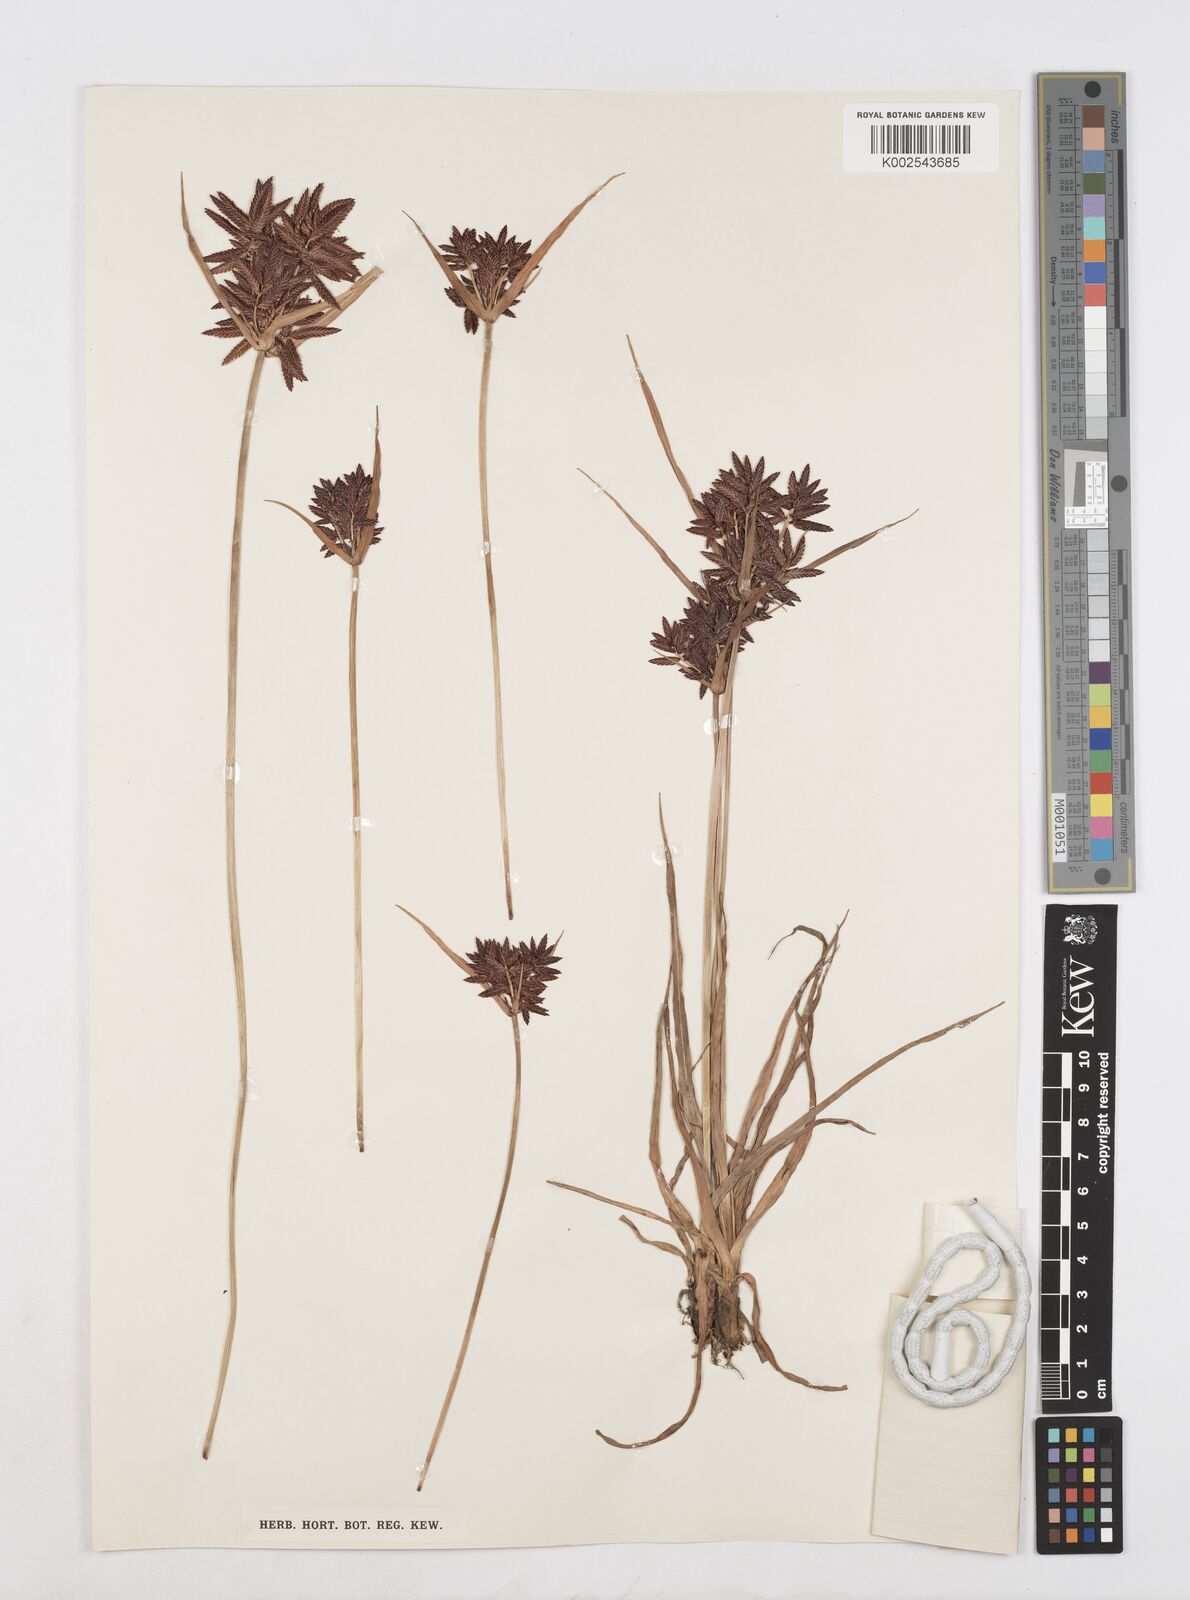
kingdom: Plantae
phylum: Tracheophyta
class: Liliopsida
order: Poales
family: Cyperaceae
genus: Cyperus
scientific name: Cyperus nitidus
